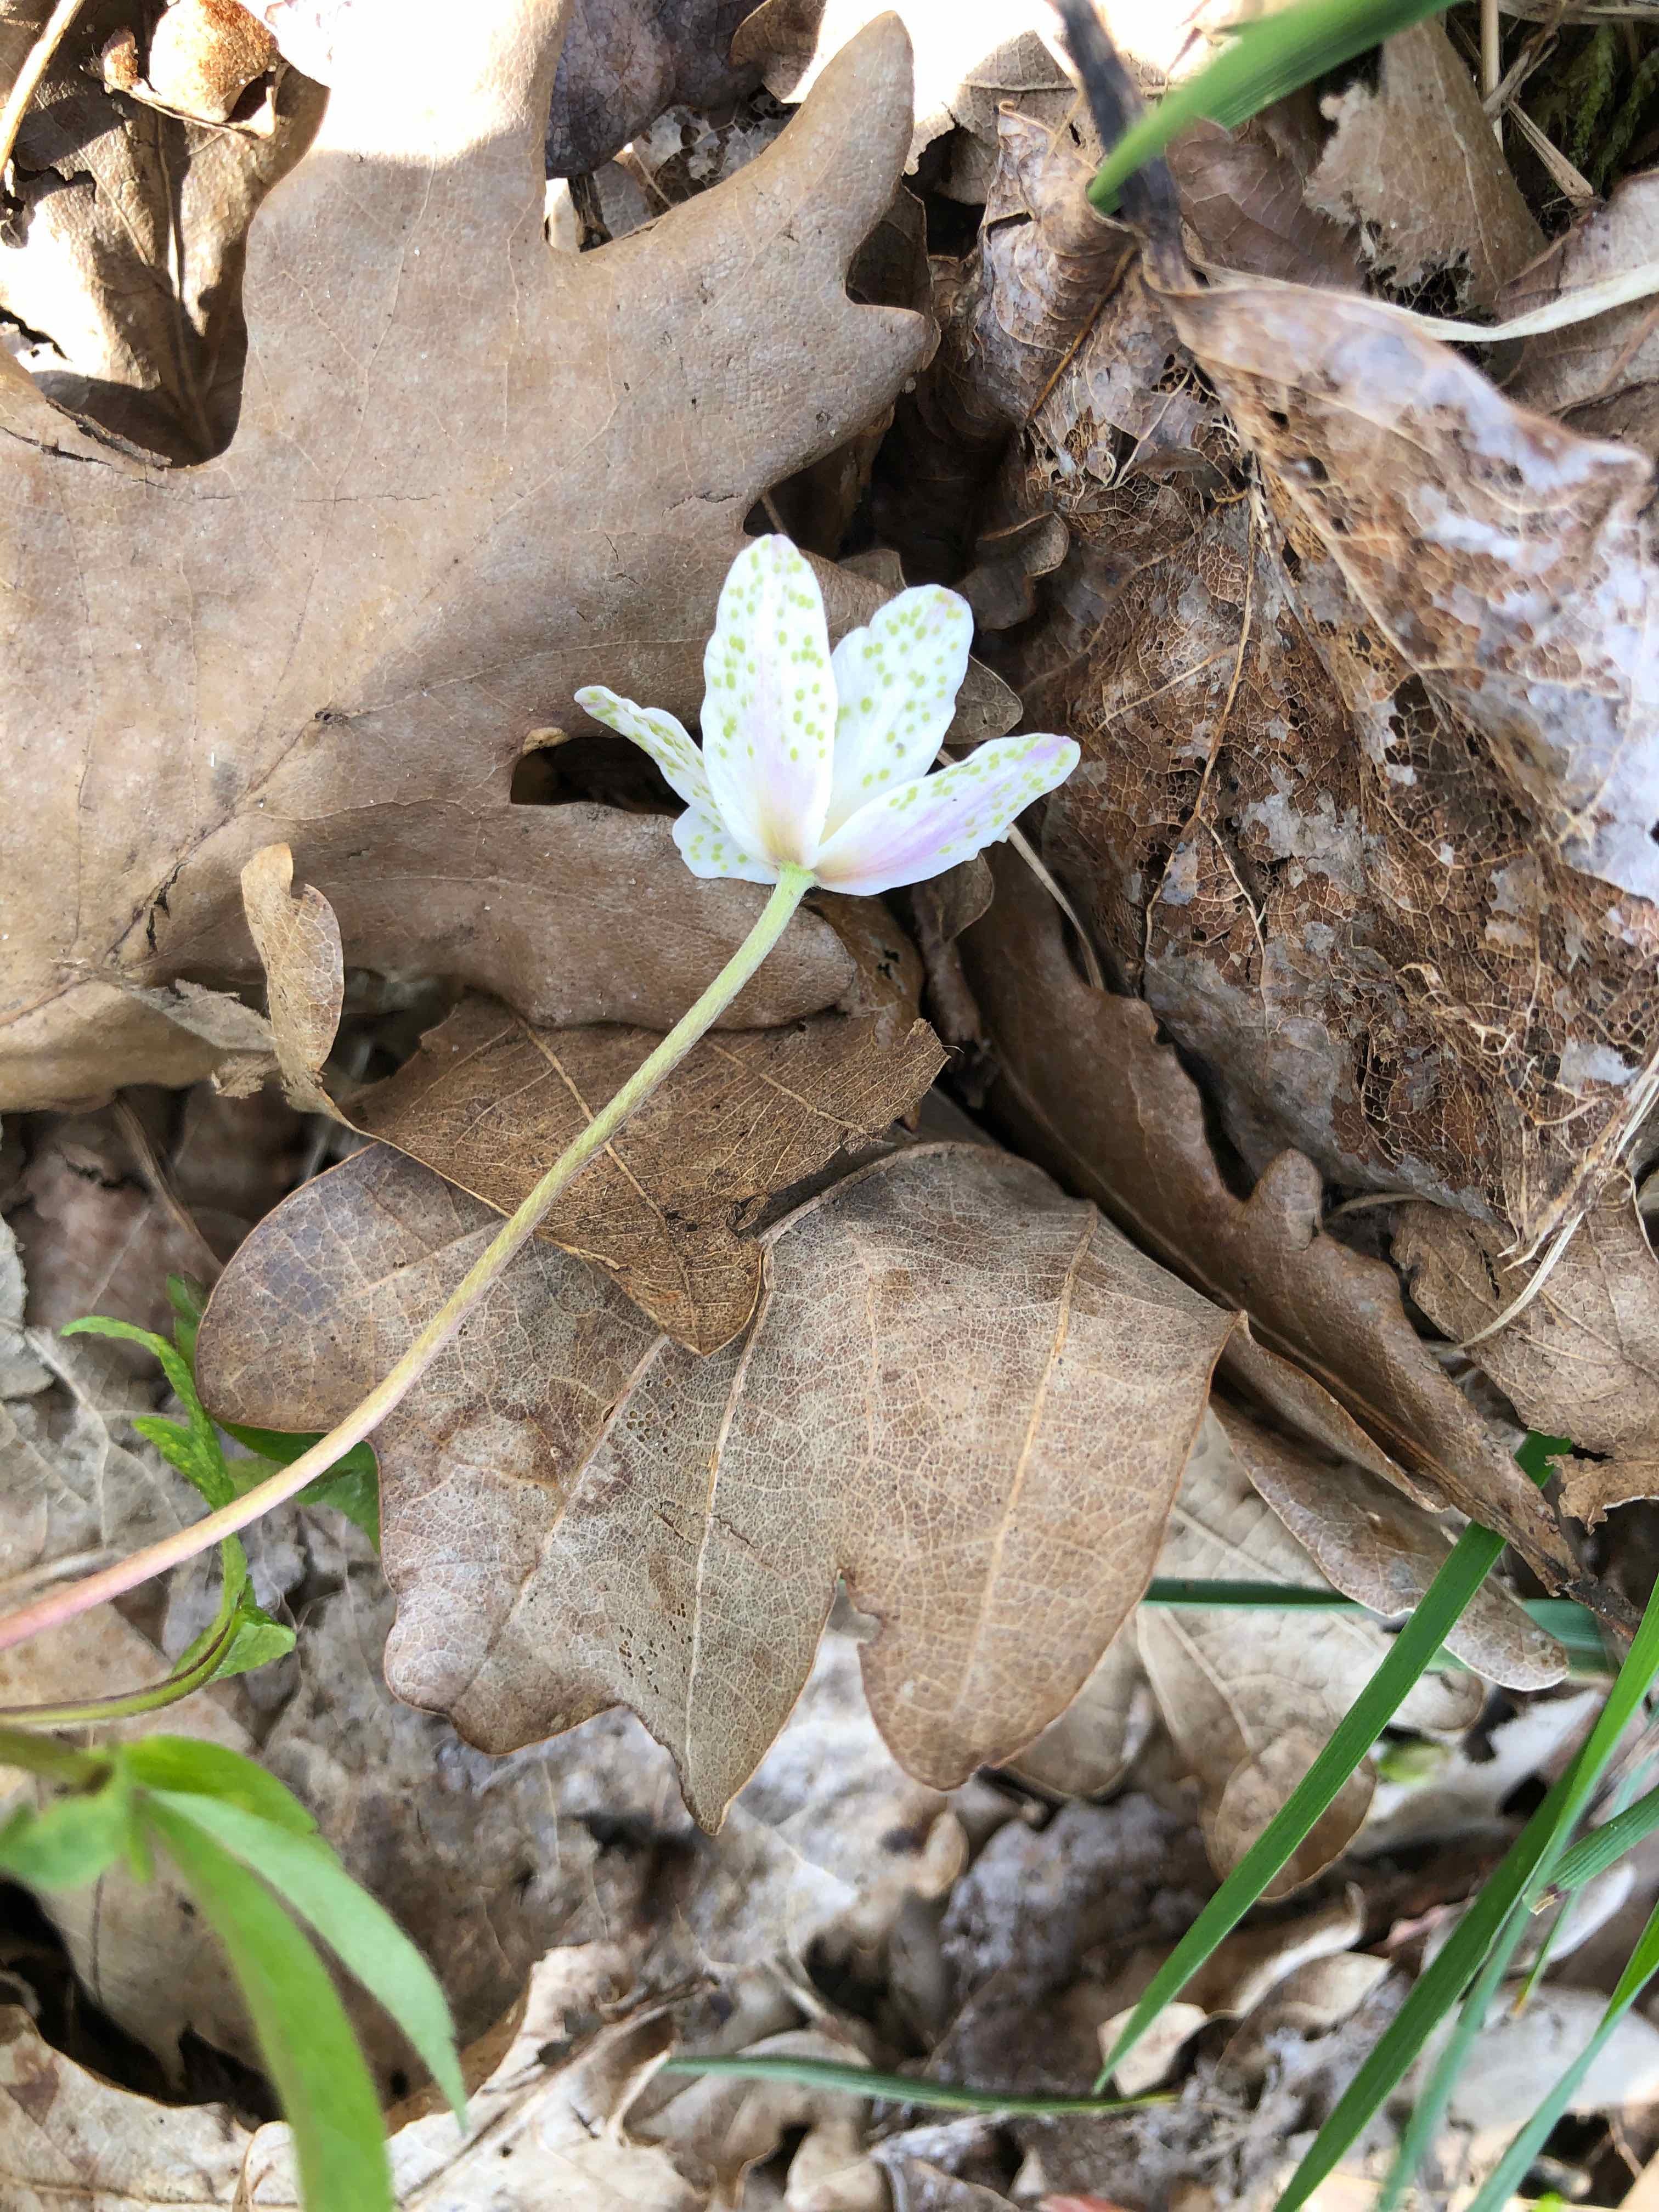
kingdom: Fungi
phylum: Basidiomycota
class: Pucciniomycetes
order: Pucciniales
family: Ochropsoraceae
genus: Ochropsora
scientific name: Ochropsora ariae
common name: anemone-okkerpletrust
